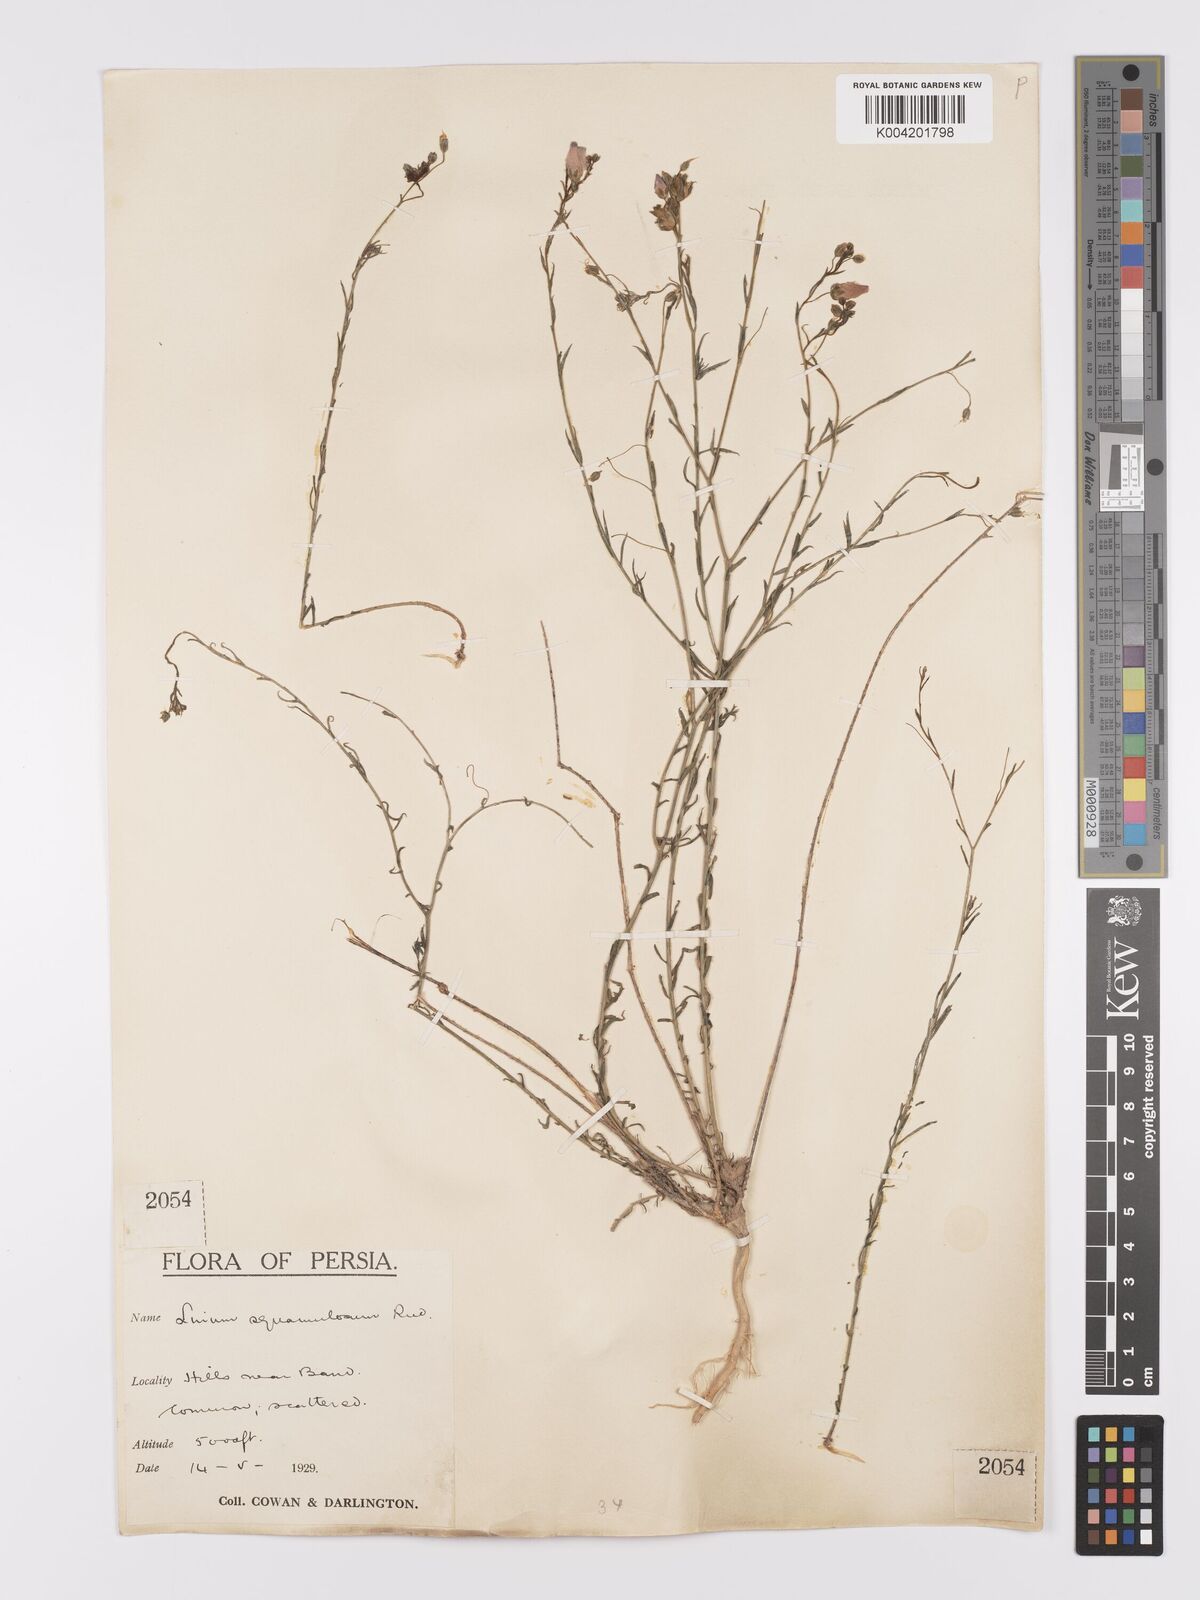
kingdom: Plantae
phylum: Tracheophyta
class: Magnoliopsida
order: Malpighiales
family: Linaceae
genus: Linum
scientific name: Linum
